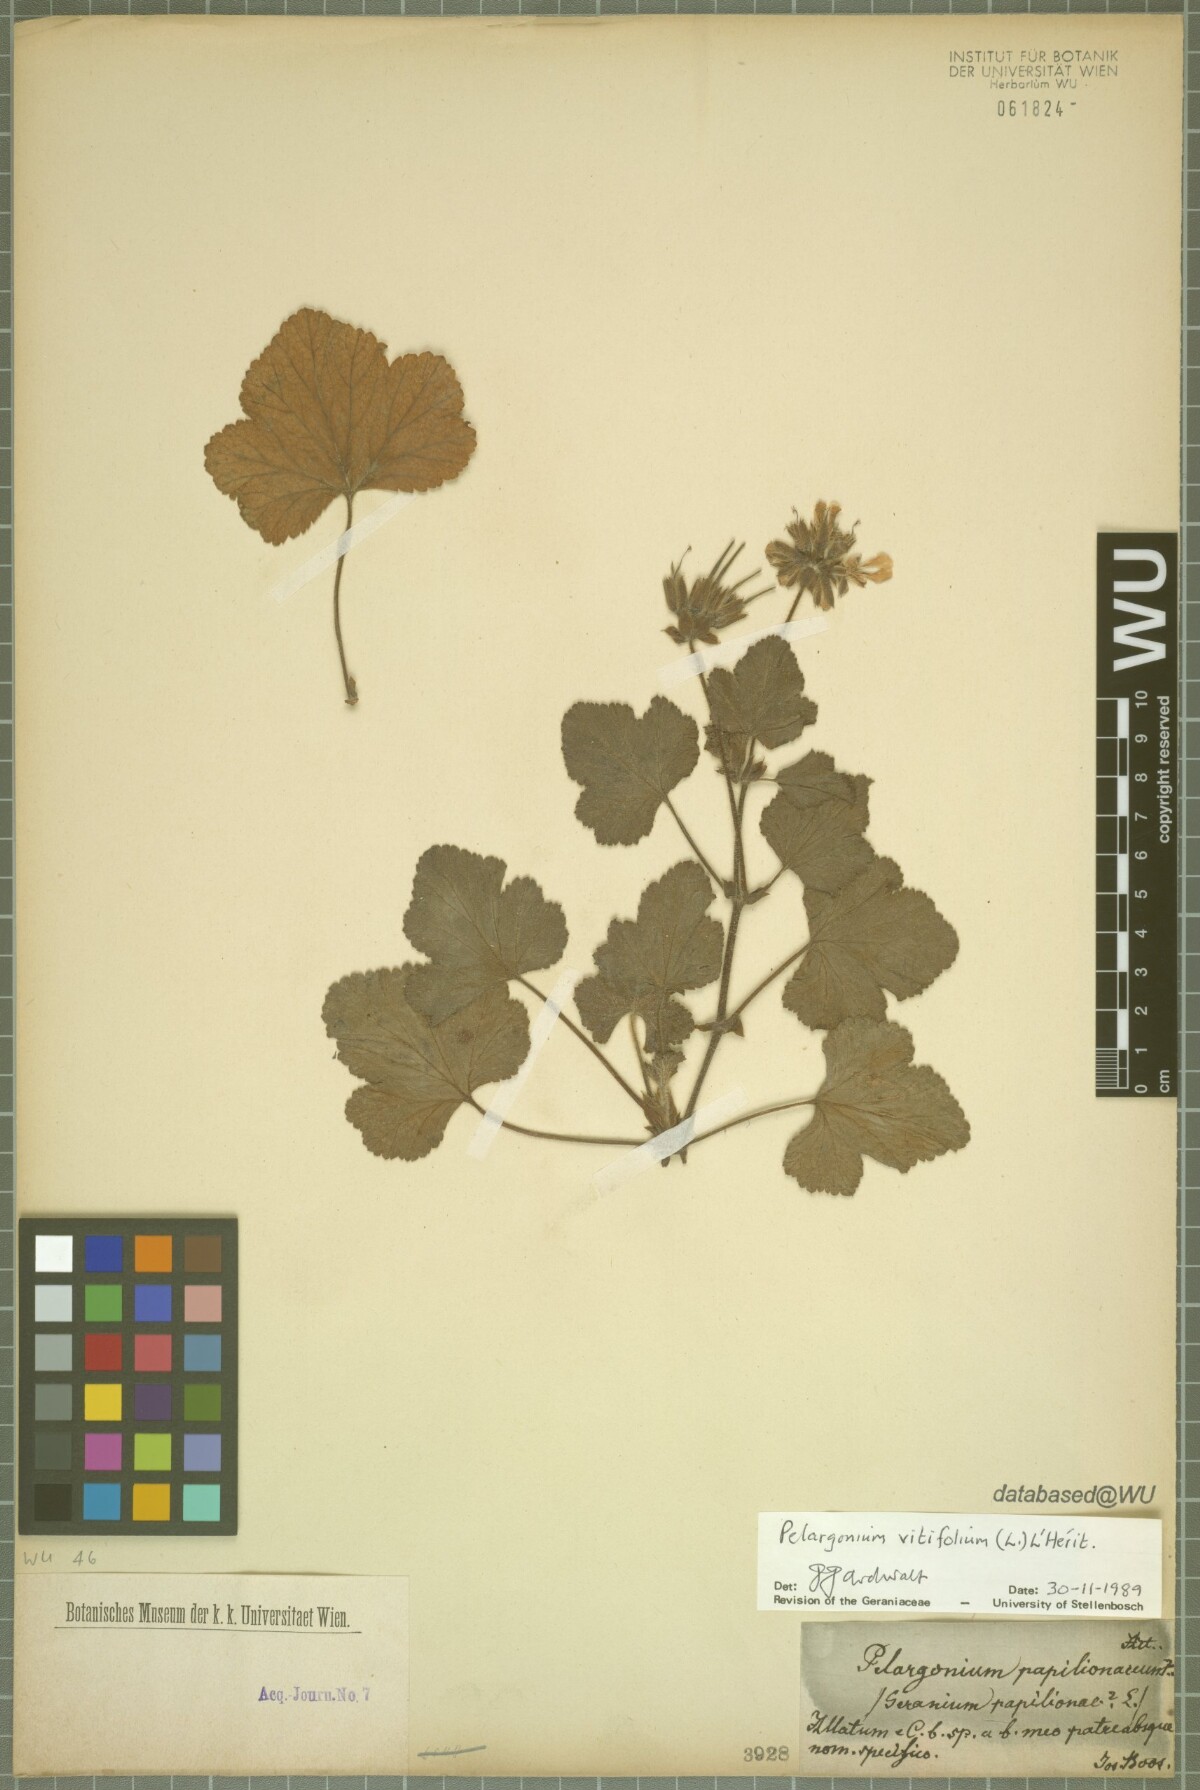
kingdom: Plantae
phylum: Tracheophyta
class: Magnoliopsida
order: Geraniales
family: Geraniaceae
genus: Pelargonium
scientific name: Pelargonium vitifolium
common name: Grapeleaf geranium
